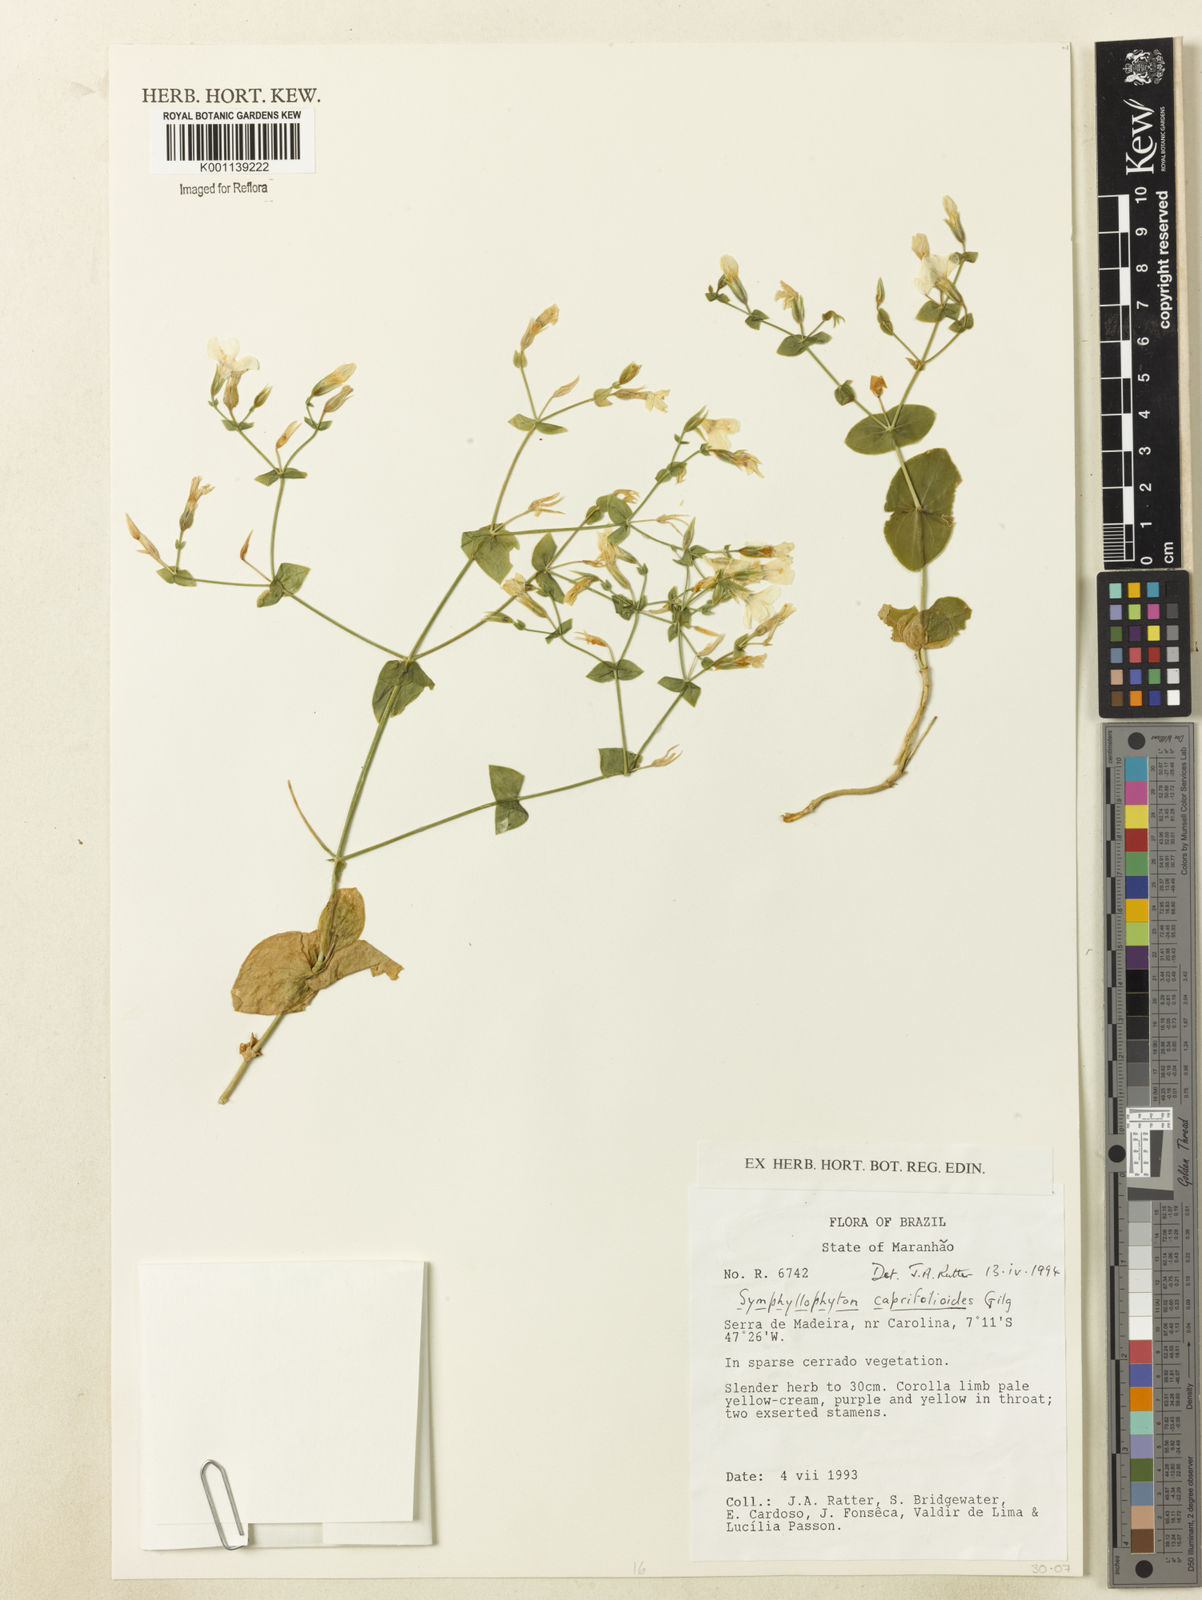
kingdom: Plantae
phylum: Tracheophyta
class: Magnoliopsida
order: Gentianales
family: Gentianaceae
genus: Symphyllophyton
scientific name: Symphyllophyton caprifolioides
